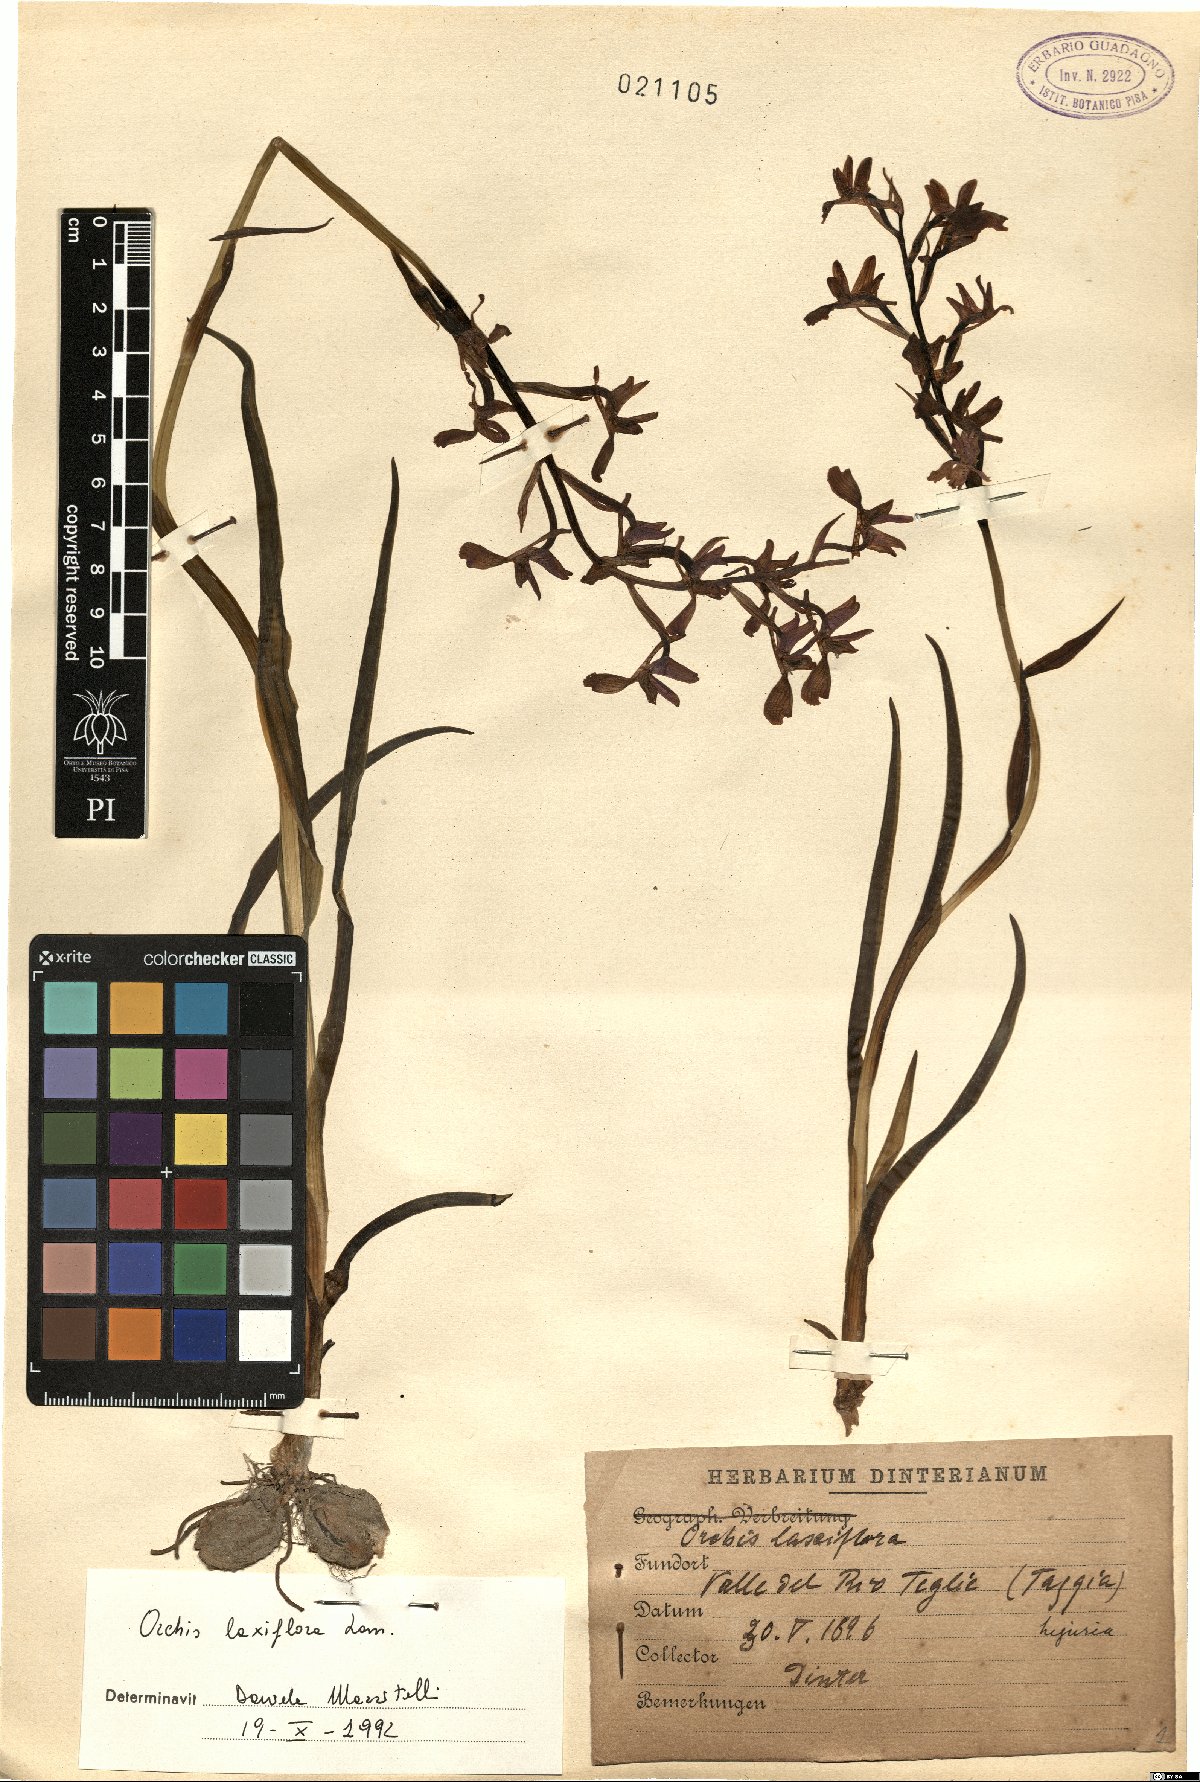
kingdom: Plantae
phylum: Tracheophyta
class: Liliopsida
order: Asparagales
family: Orchidaceae
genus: Anacamptis
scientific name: Anacamptis laxiflora
